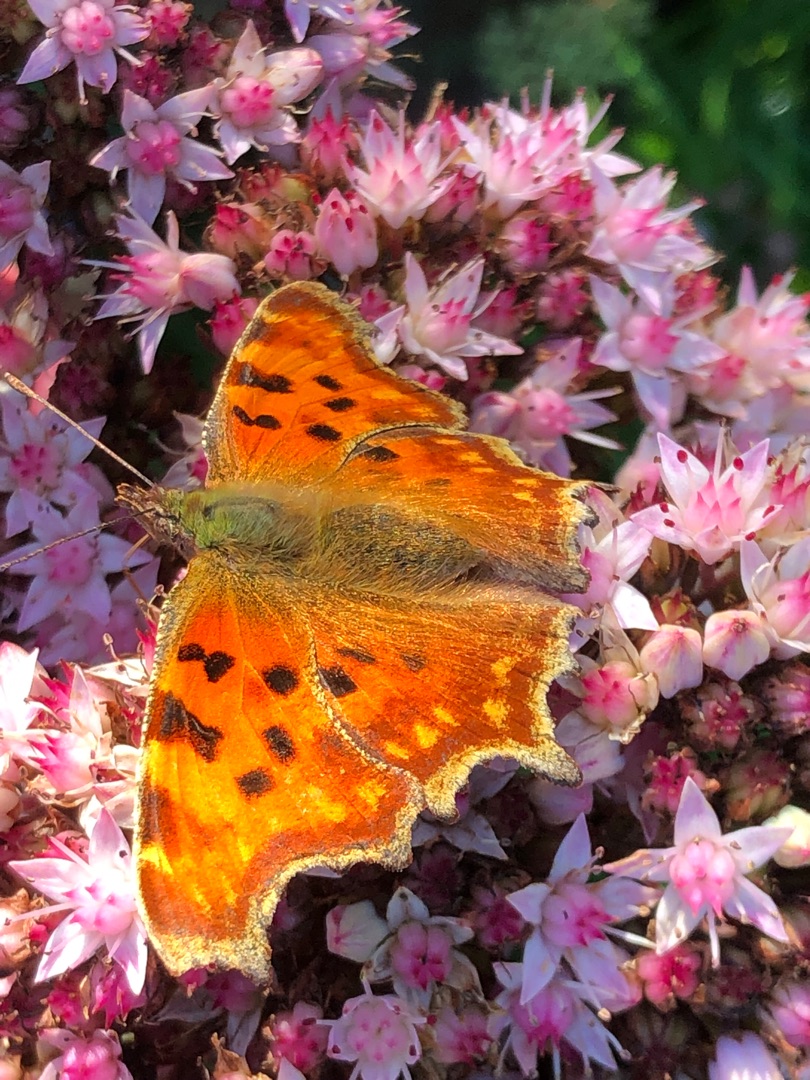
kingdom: Animalia
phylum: Arthropoda
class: Insecta
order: Lepidoptera
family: Nymphalidae
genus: Polygonia
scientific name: Polygonia c-album
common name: Det hvide C
